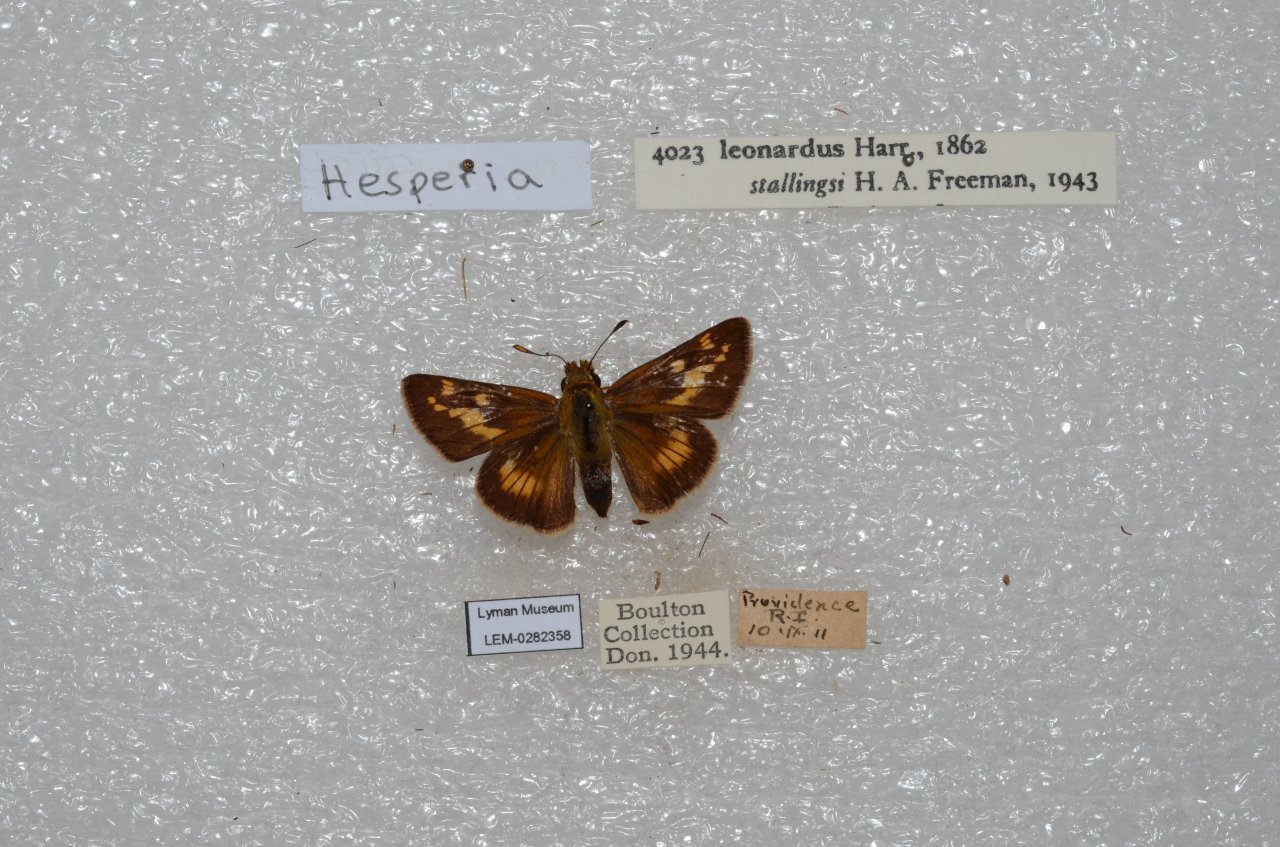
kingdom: Animalia
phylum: Arthropoda
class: Insecta
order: Lepidoptera
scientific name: Lepidoptera
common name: Butterflies
